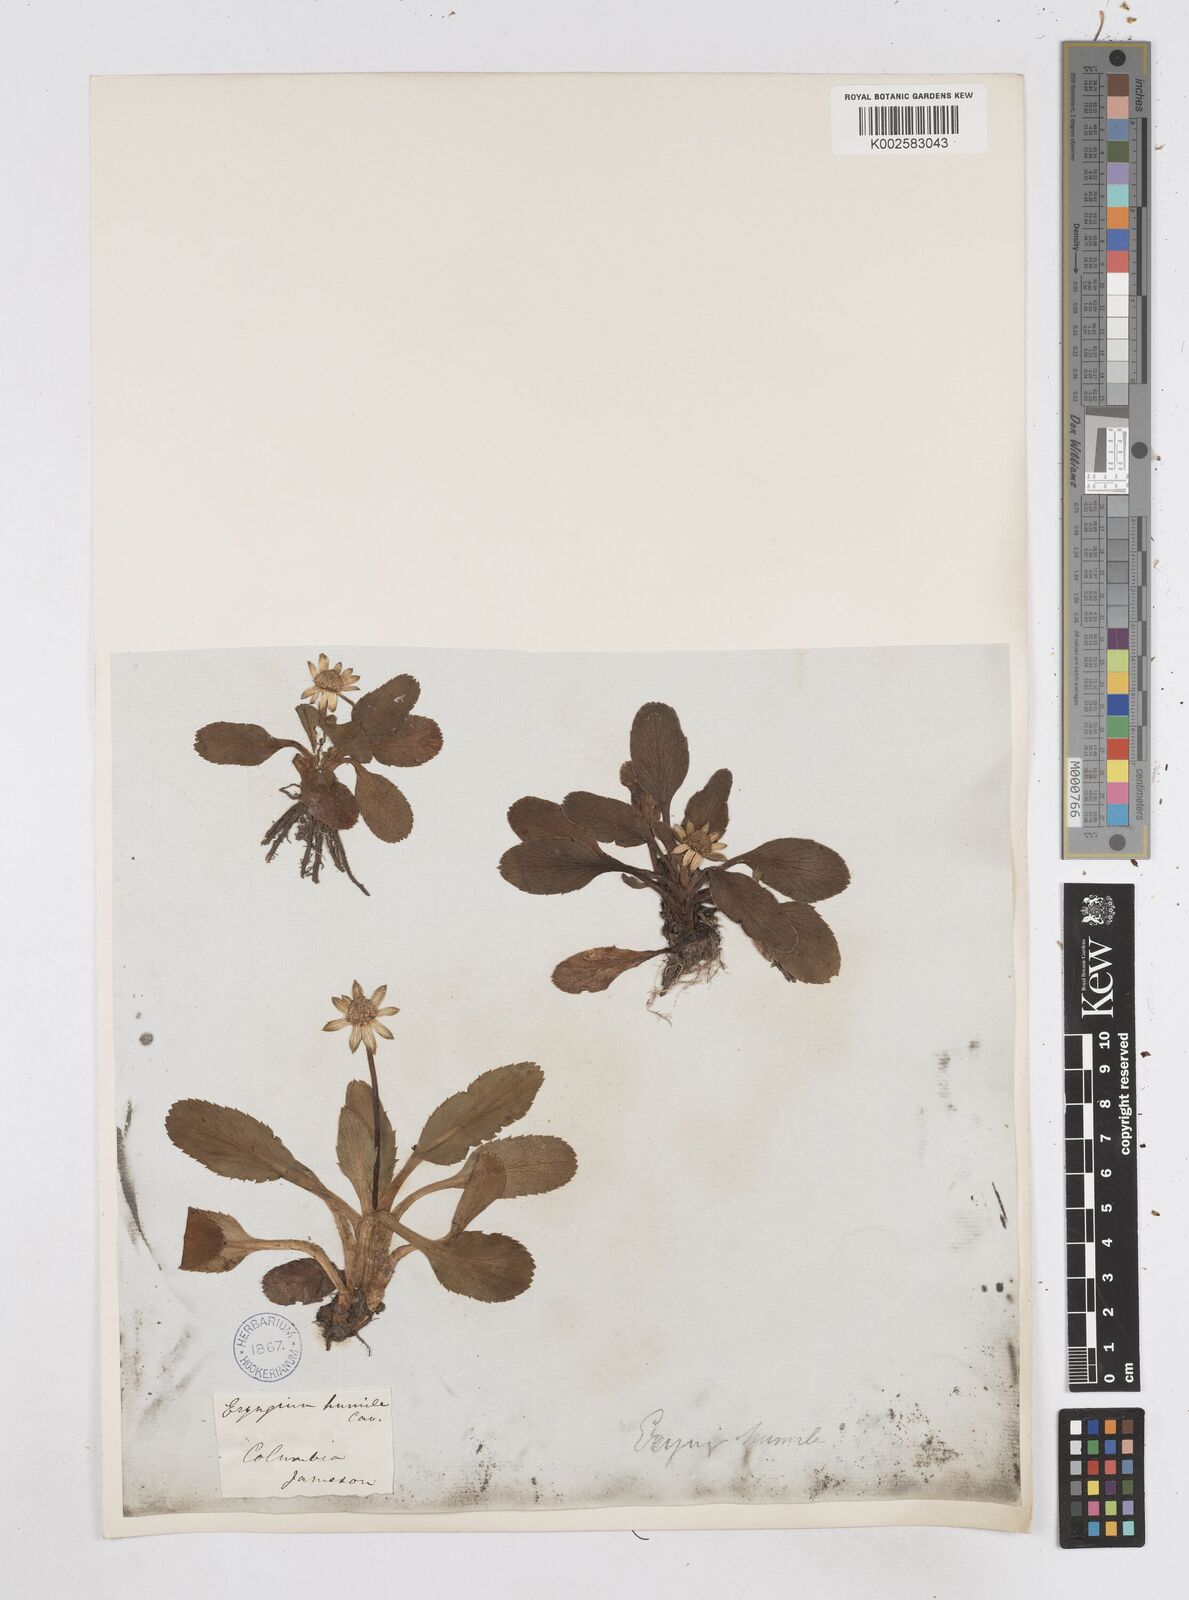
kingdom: Plantae
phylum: Tracheophyta
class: Magnoliopsida
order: Apiales
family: Apiaceae
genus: Eryngium
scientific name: Eryngium humile
